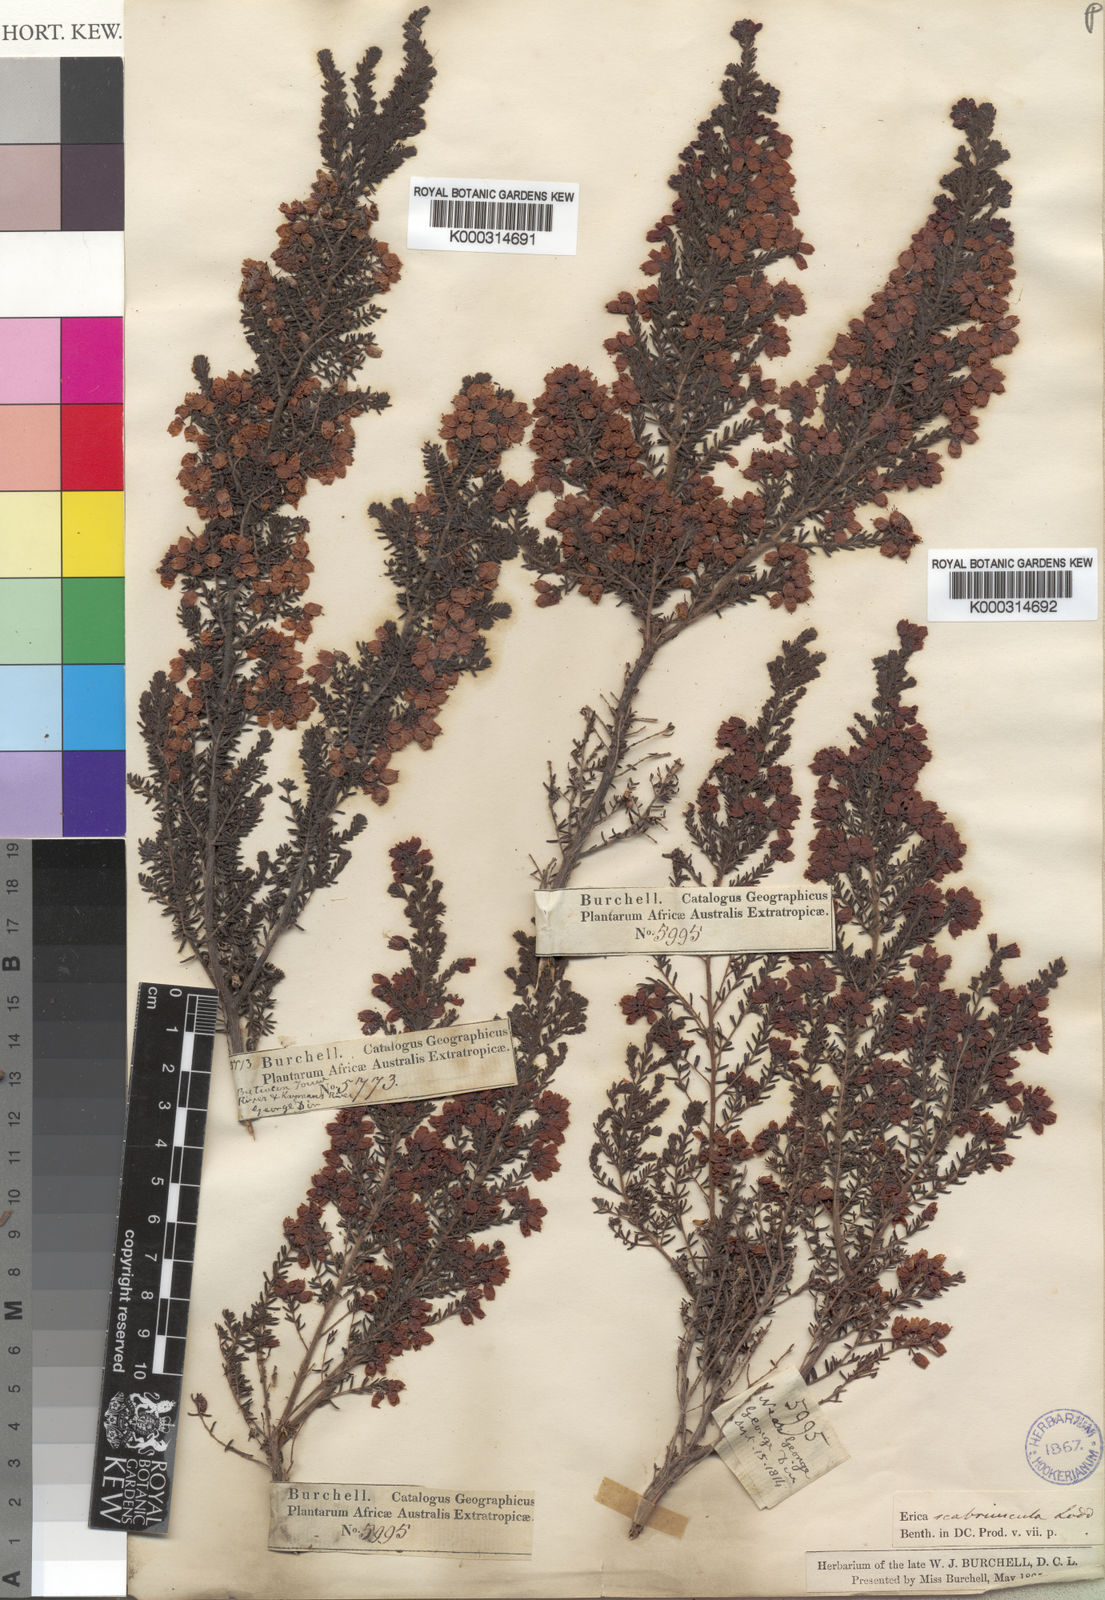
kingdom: Plantae
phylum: Tracheophyta
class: Magnoliopsida
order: Ericales
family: Ericaceae
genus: Erica
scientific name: Erica
